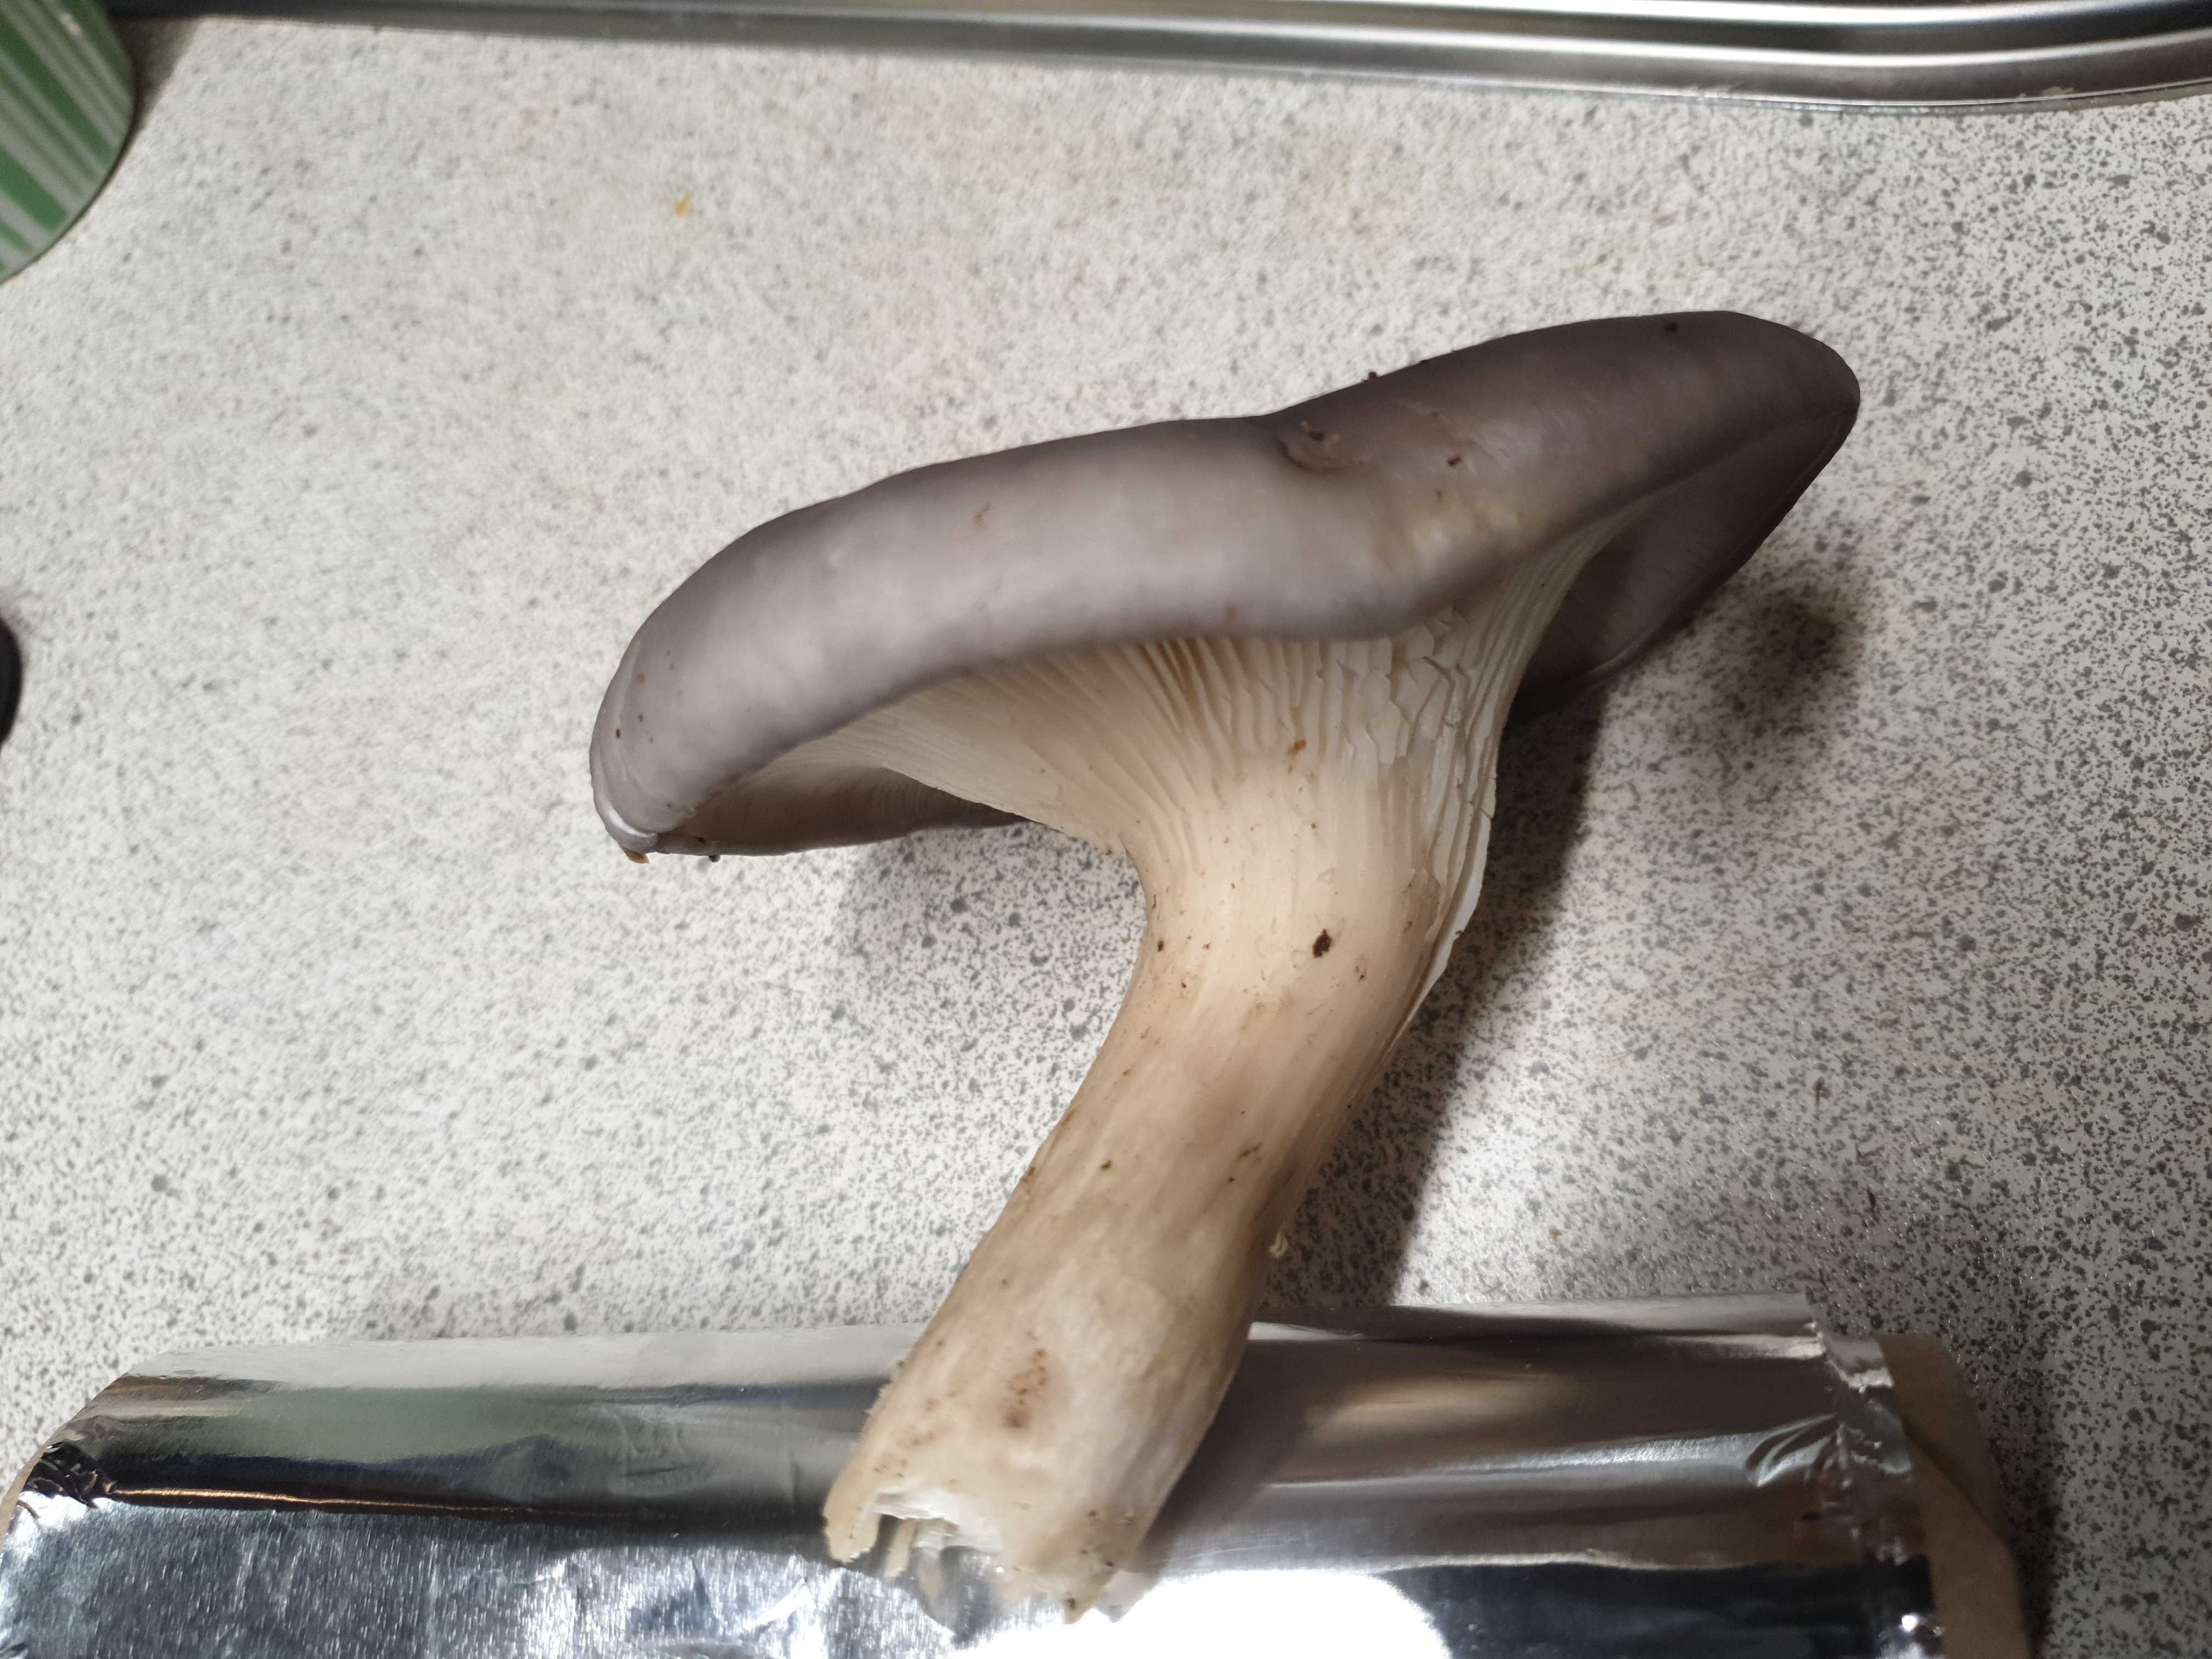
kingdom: Fungi
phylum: Basidiomycota
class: Agaricomycetes
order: Agaricales
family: Pleurotaceae
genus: Pleurotus
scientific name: Pleurotus ostreatus
